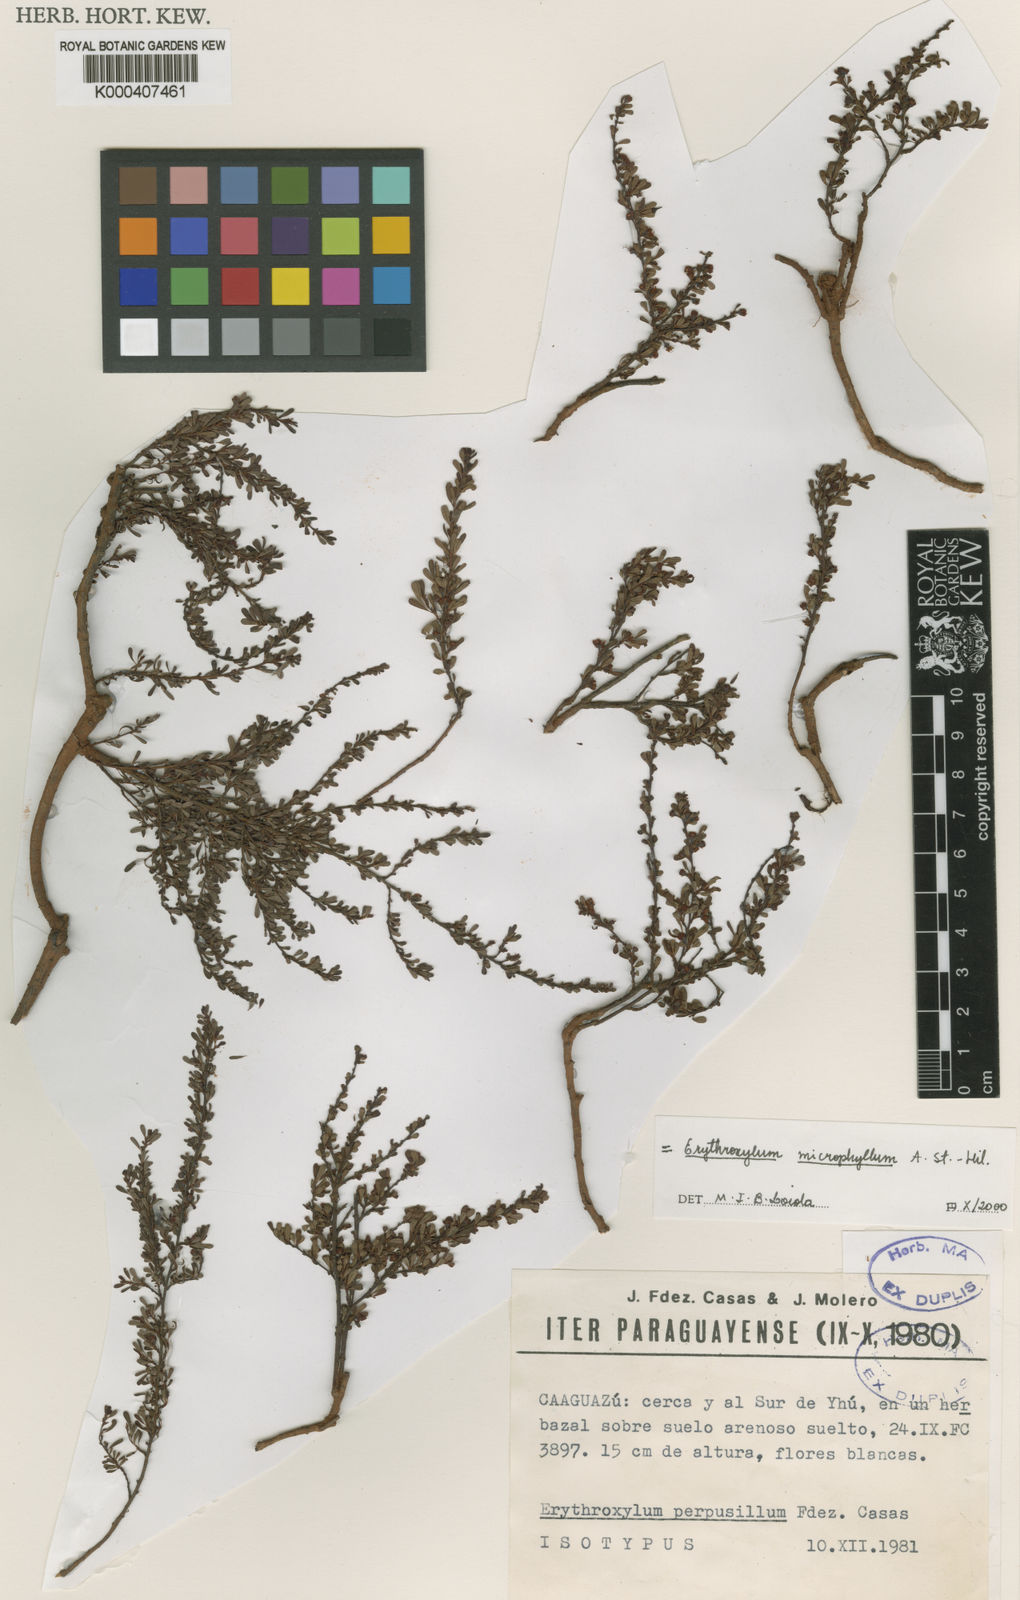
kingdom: Plantae
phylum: Tracheophyta
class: Magnoliopsida
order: Malpighiales
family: Erythroxylaceae
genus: Erythroxylum
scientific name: Erythroxylum microphyllum
